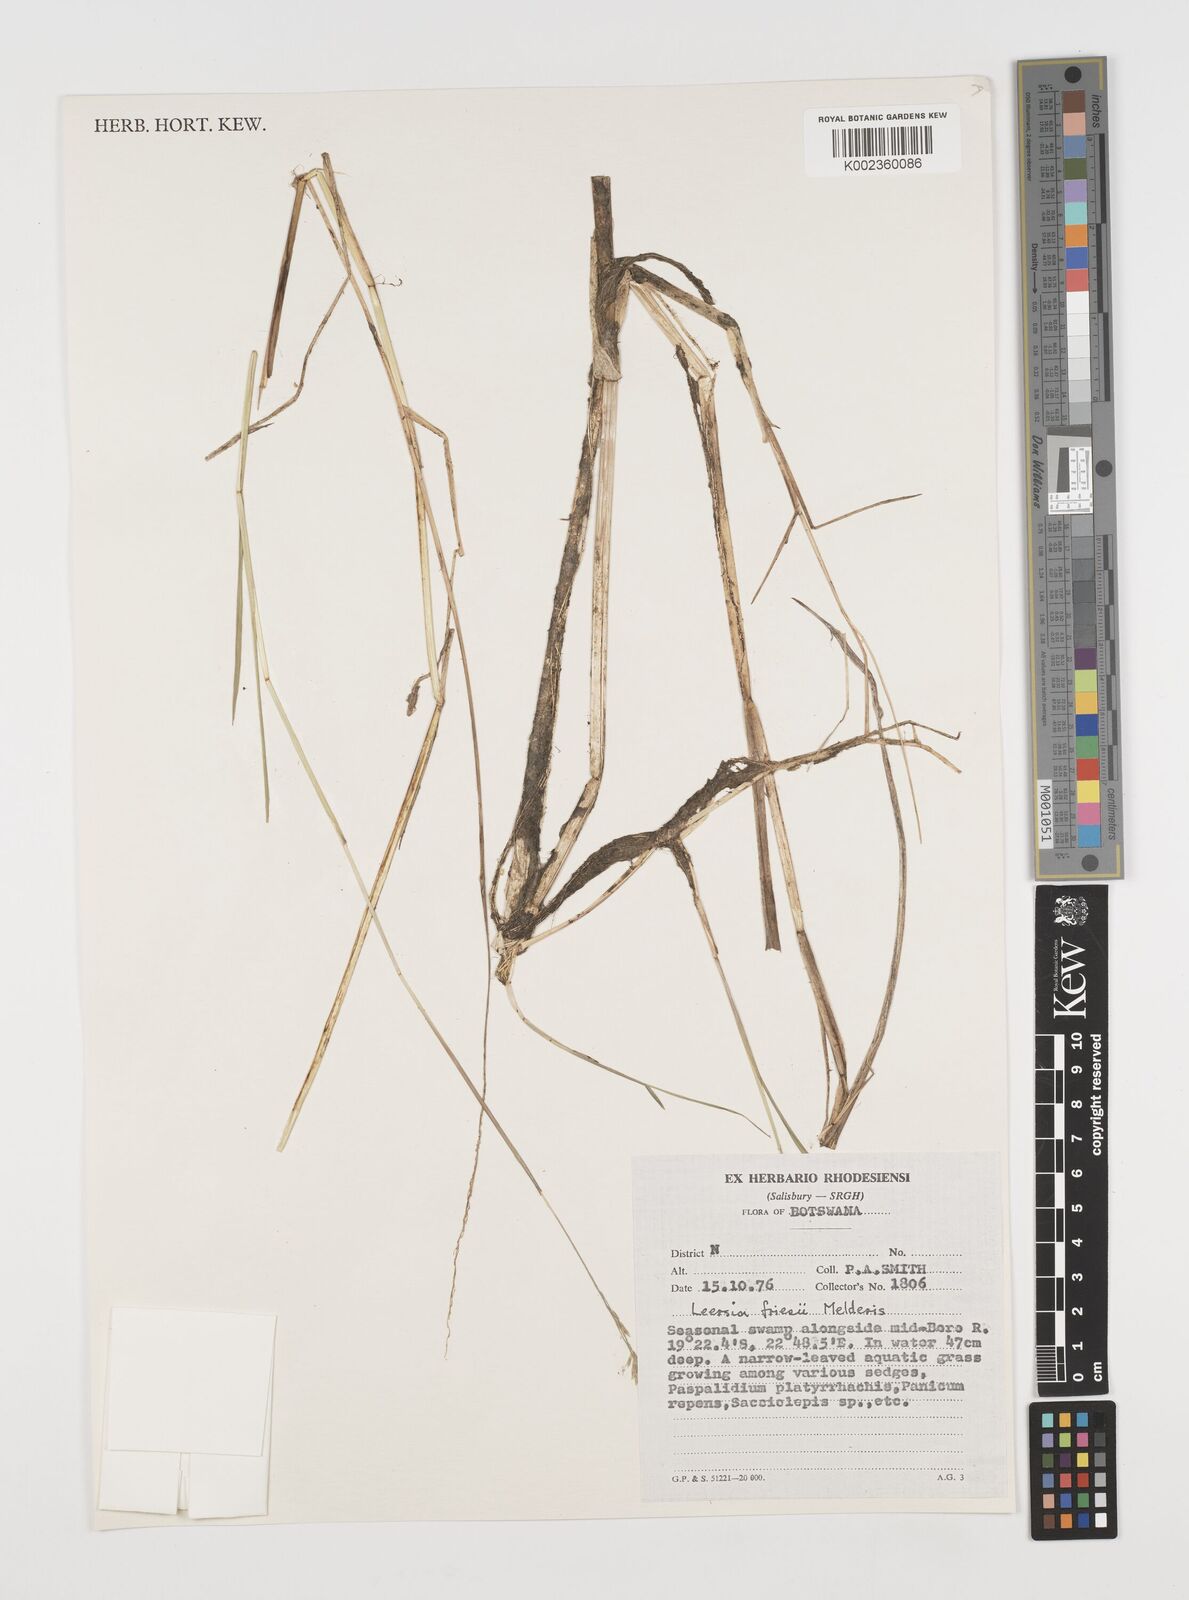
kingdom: Plantae
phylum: Tracheophyta
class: Liliopsida
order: Poales
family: Poaceae
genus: Leersia
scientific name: Leersia friesii
